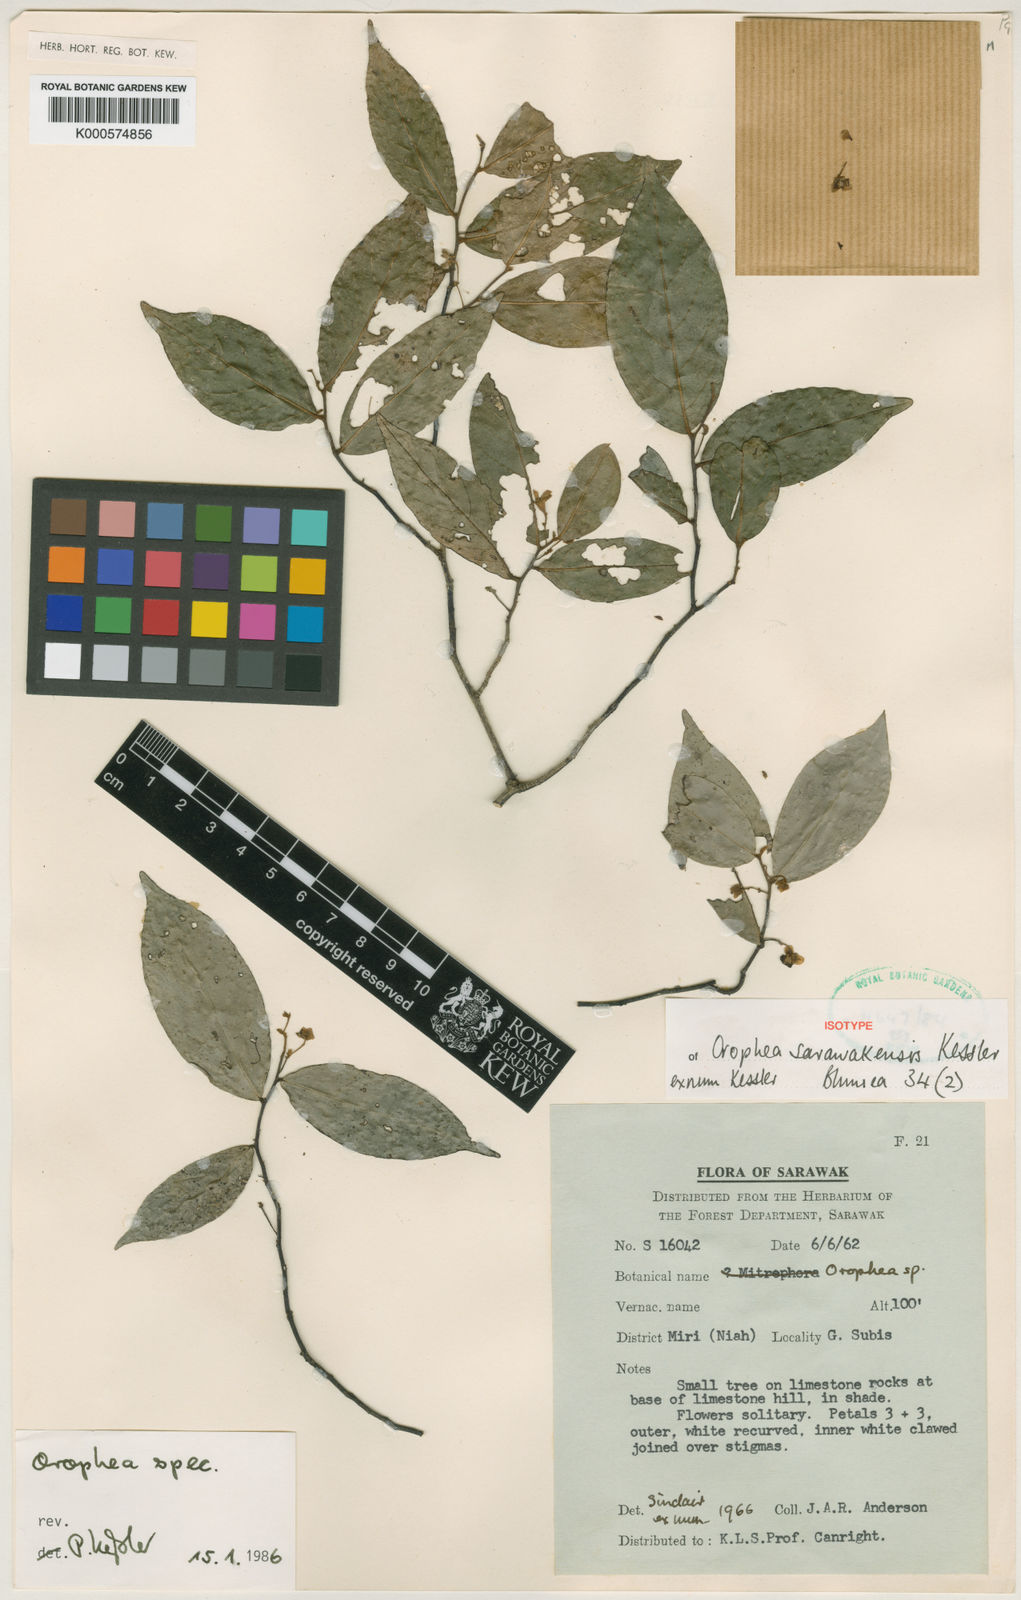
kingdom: Plantae
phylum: Tracheophyta
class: Magnoliopsida
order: Magnoliales
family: Annonaceae
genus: Orophea
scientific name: Orophea sarawakensis
